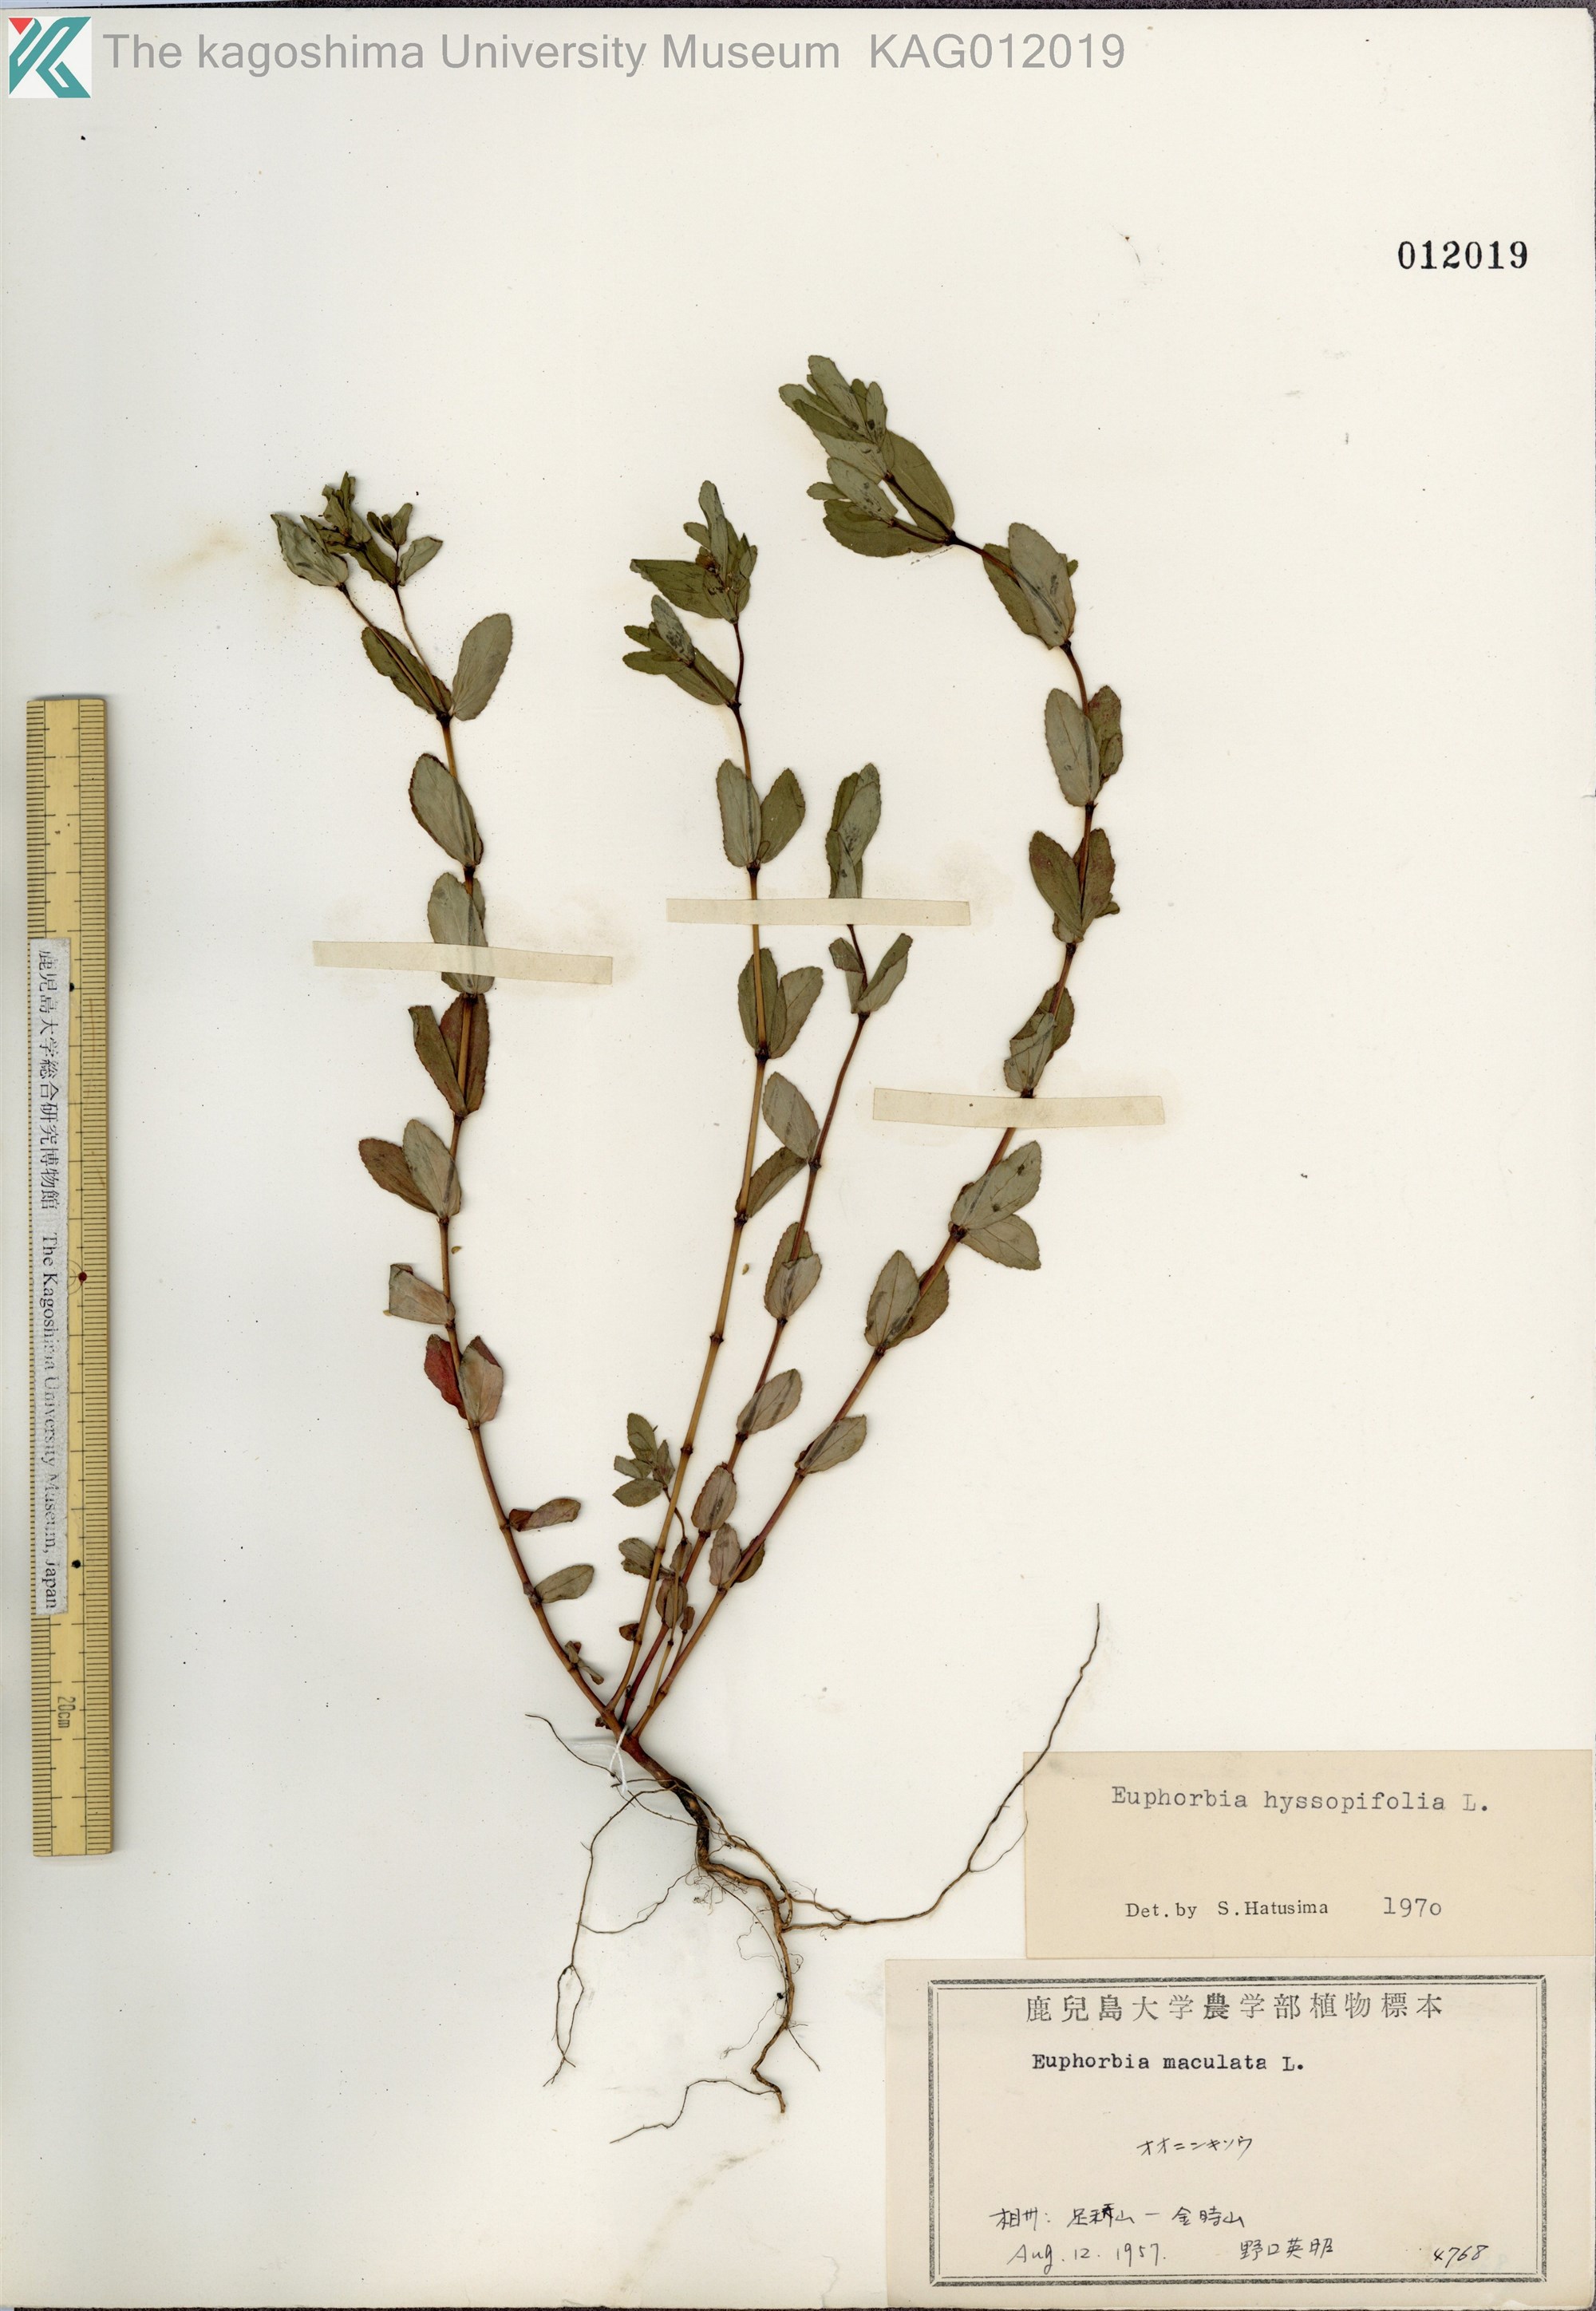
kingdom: Plantae
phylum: Tracheophyta
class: Magnoliopsida
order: Malpighiales
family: Euphorbiaceae
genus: Euphorbia
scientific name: Euphorbia hyssopifolia
